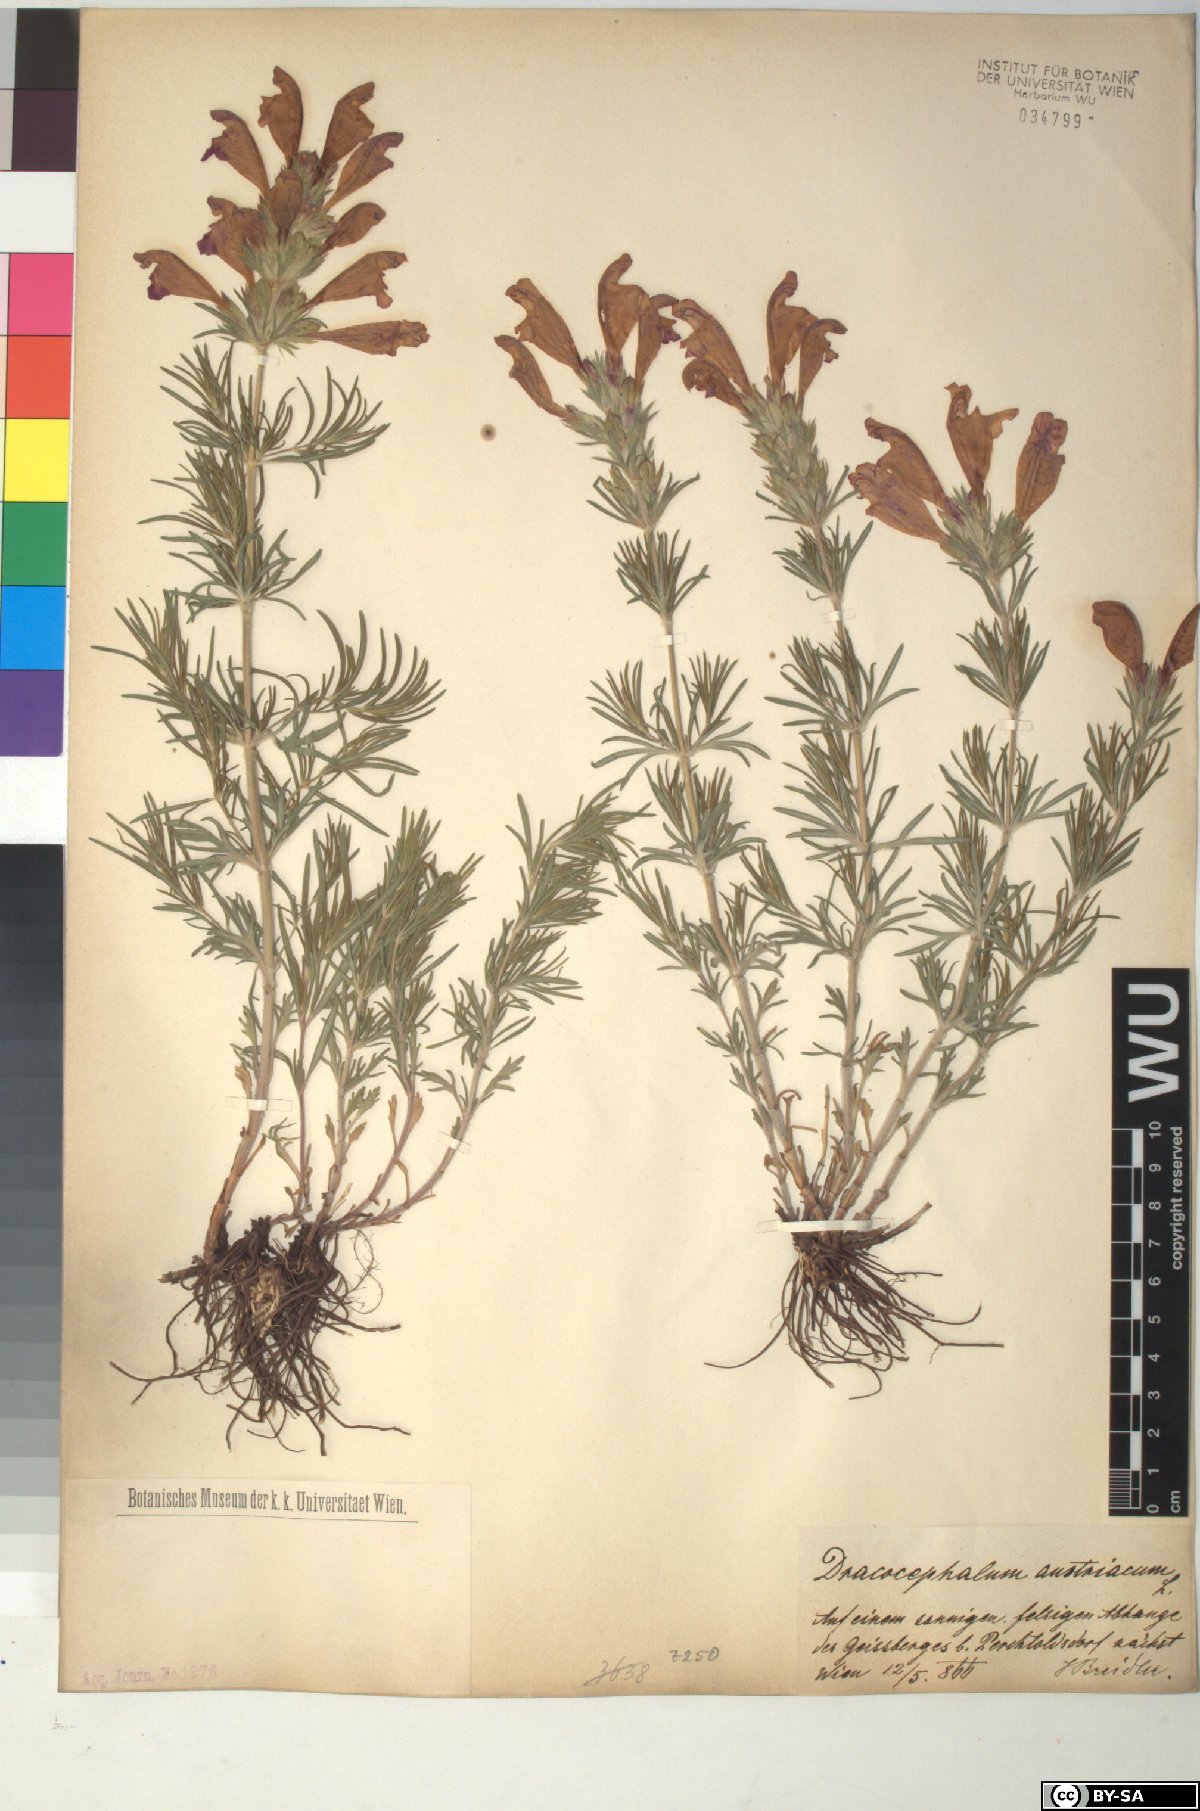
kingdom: Plantae
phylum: Tracheophyta
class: Magnoliopsida
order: Lamiales
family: Lamiaceae
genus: Dracocephalum
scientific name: Dracocephalum austriacum
